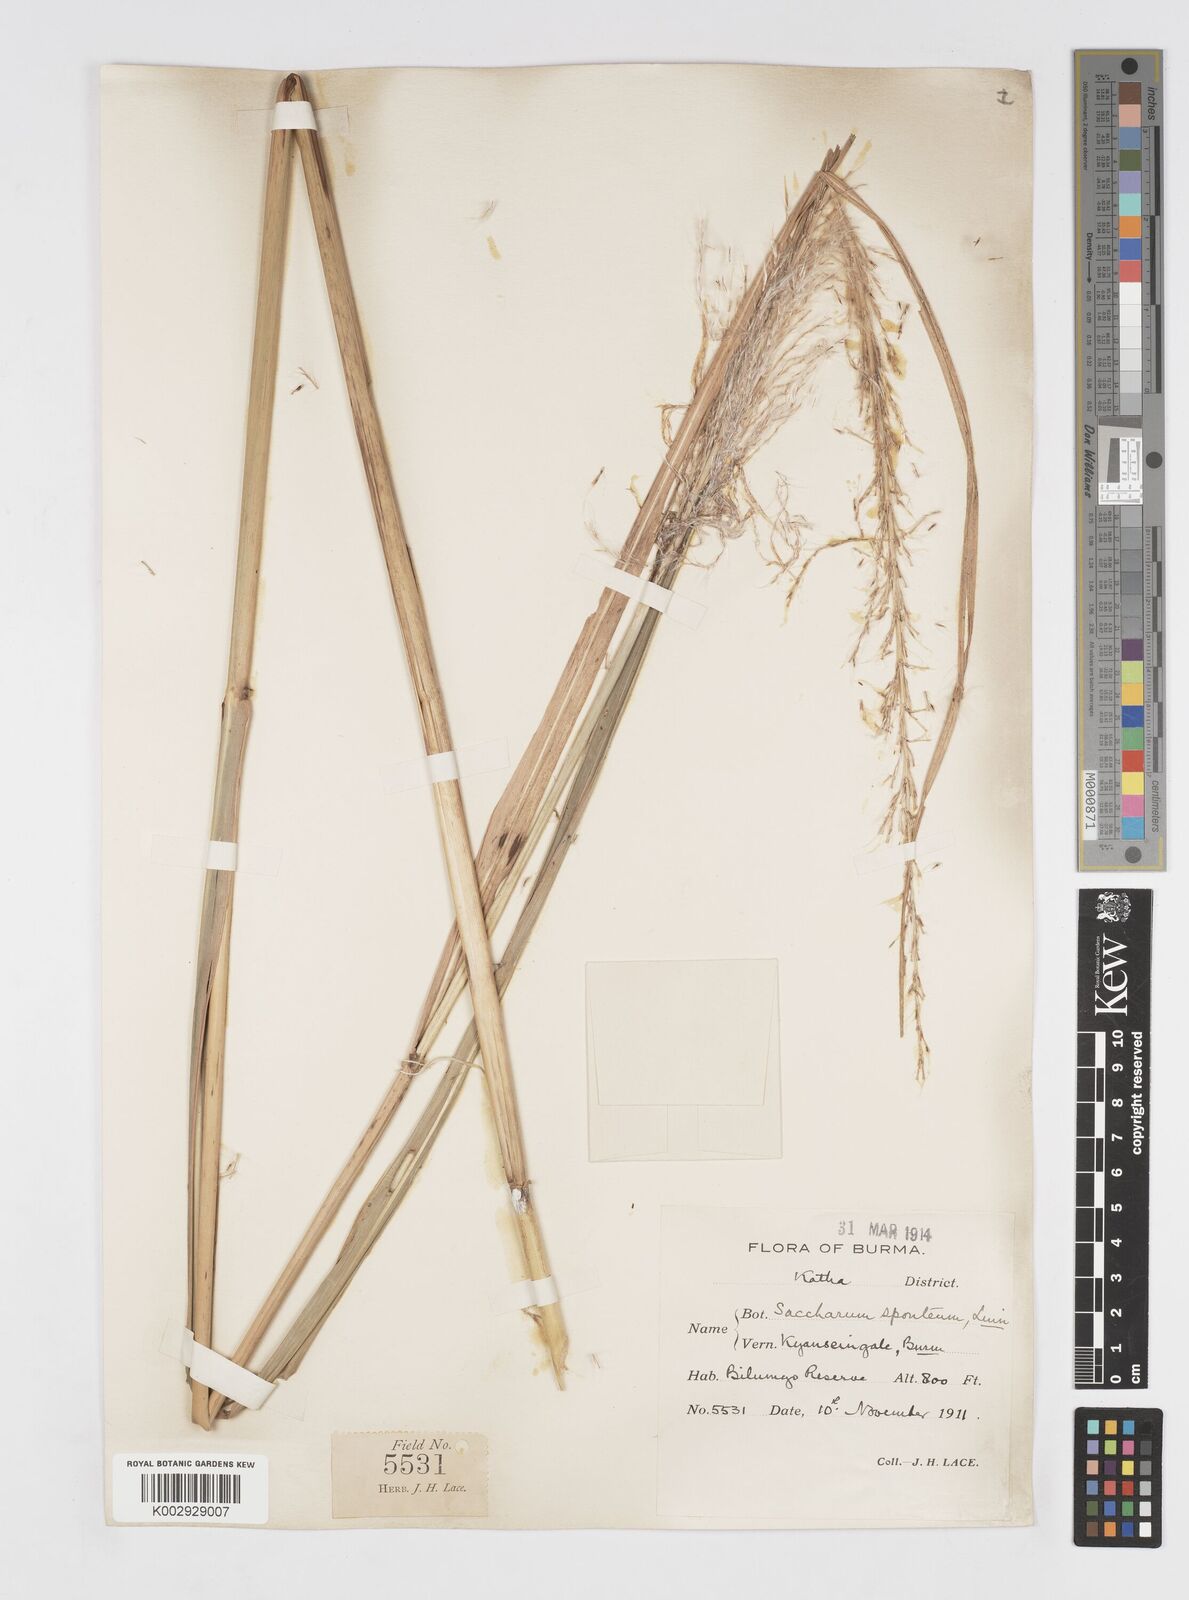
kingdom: Plantae
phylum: Tracheophyta
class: Liliopsida
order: Poales
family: Poaceae
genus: Saccharum
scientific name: Saccharum spontaneum
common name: Wild sugarcane
